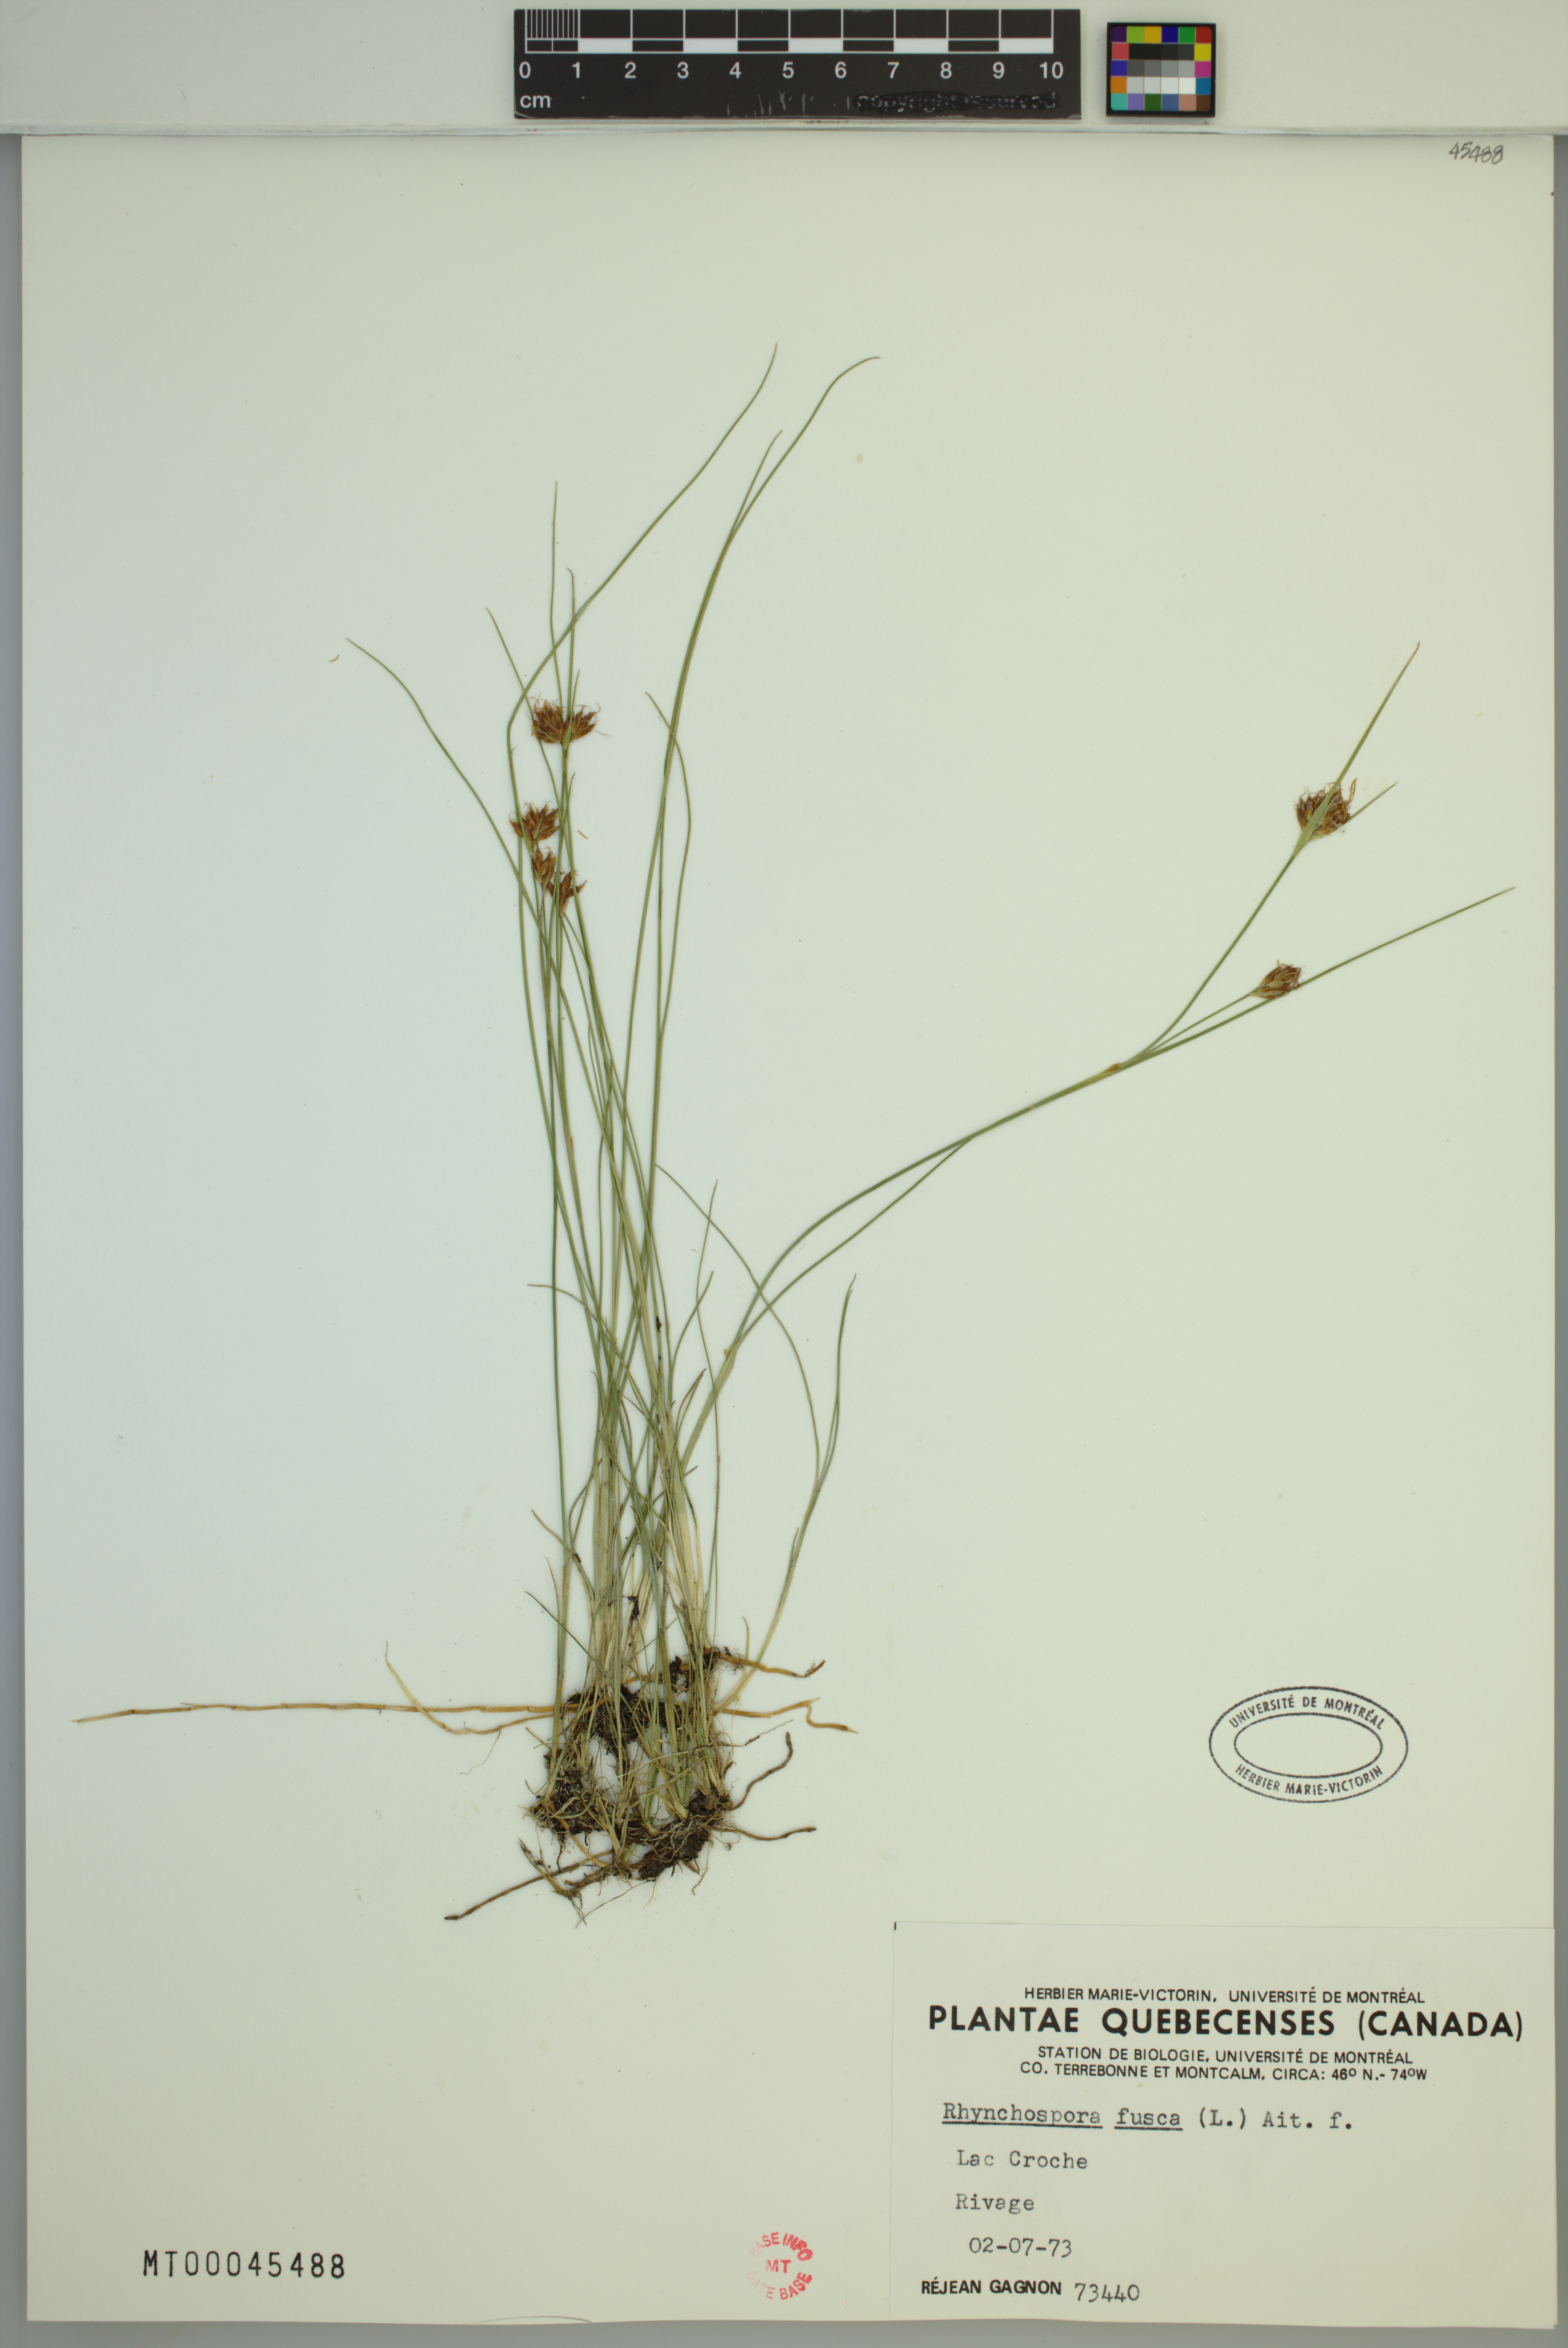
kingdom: Plantae
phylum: Tracheophyta
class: Liliopsida
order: Poales
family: Cyperaceae
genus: Rhynchospora
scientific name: Rhynchospora fusca
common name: Brown beak-sedge
